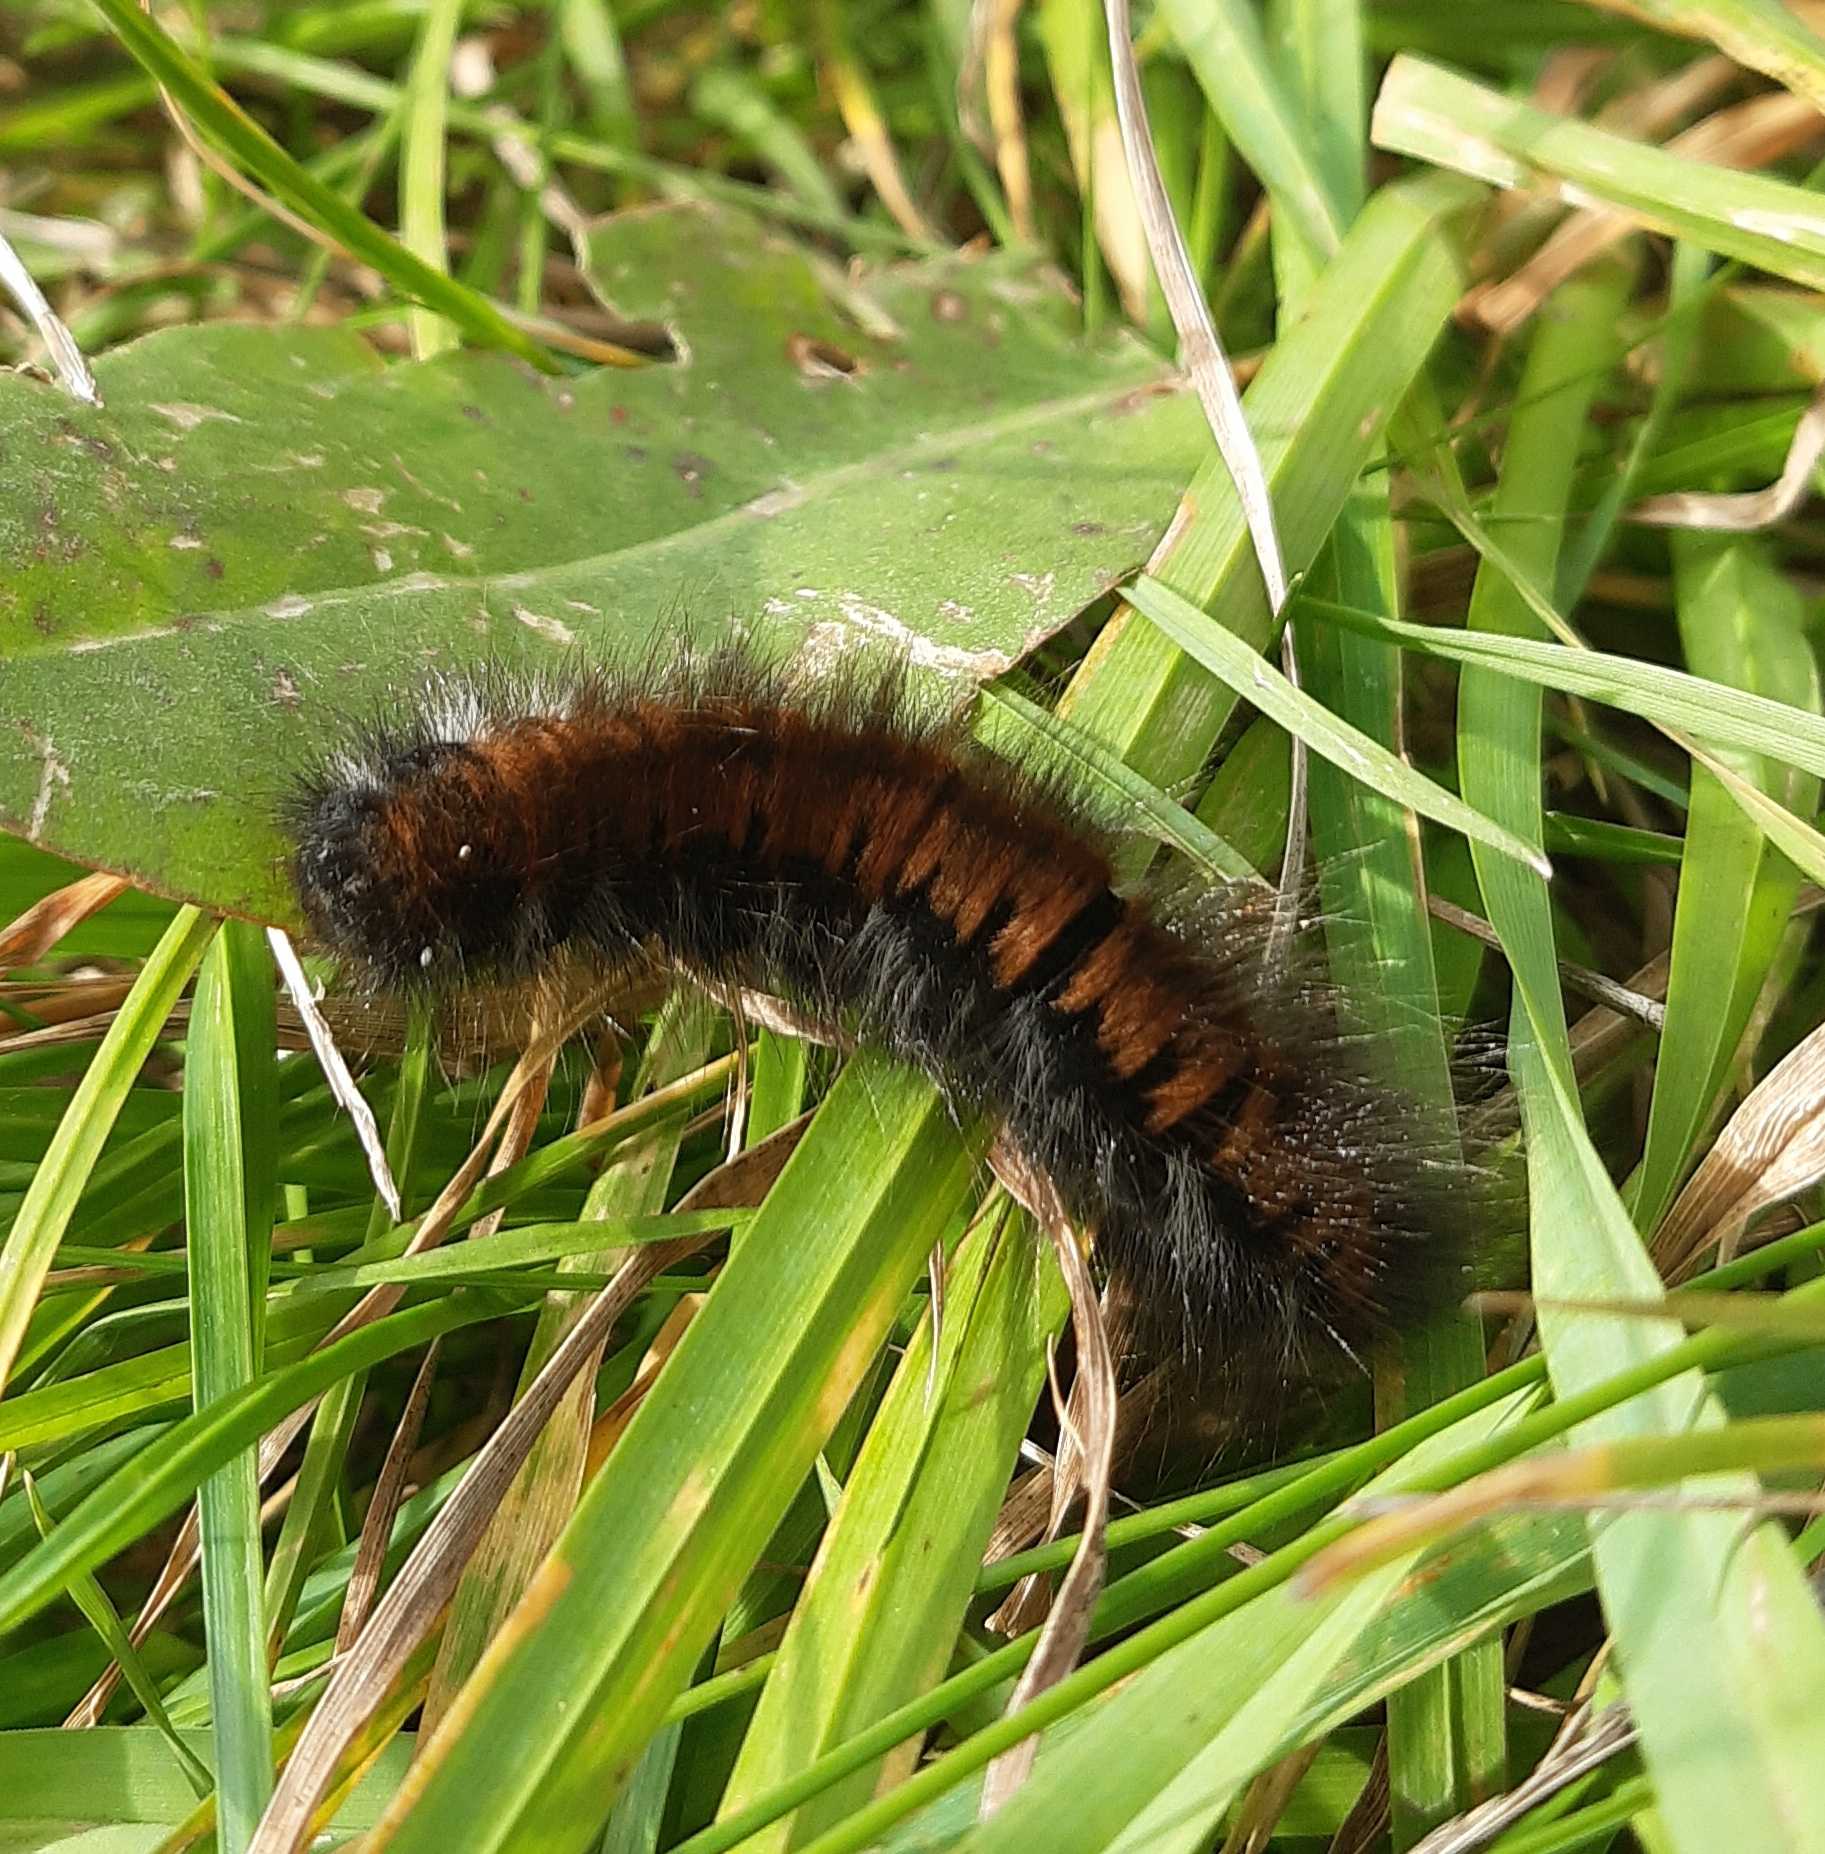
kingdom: Animalia
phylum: Arthropoda
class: Insecta
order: Lepidoptera
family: Lasiocampidae
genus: Macrothylacia
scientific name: Macrothylacia rubi
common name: Brombærspinder
